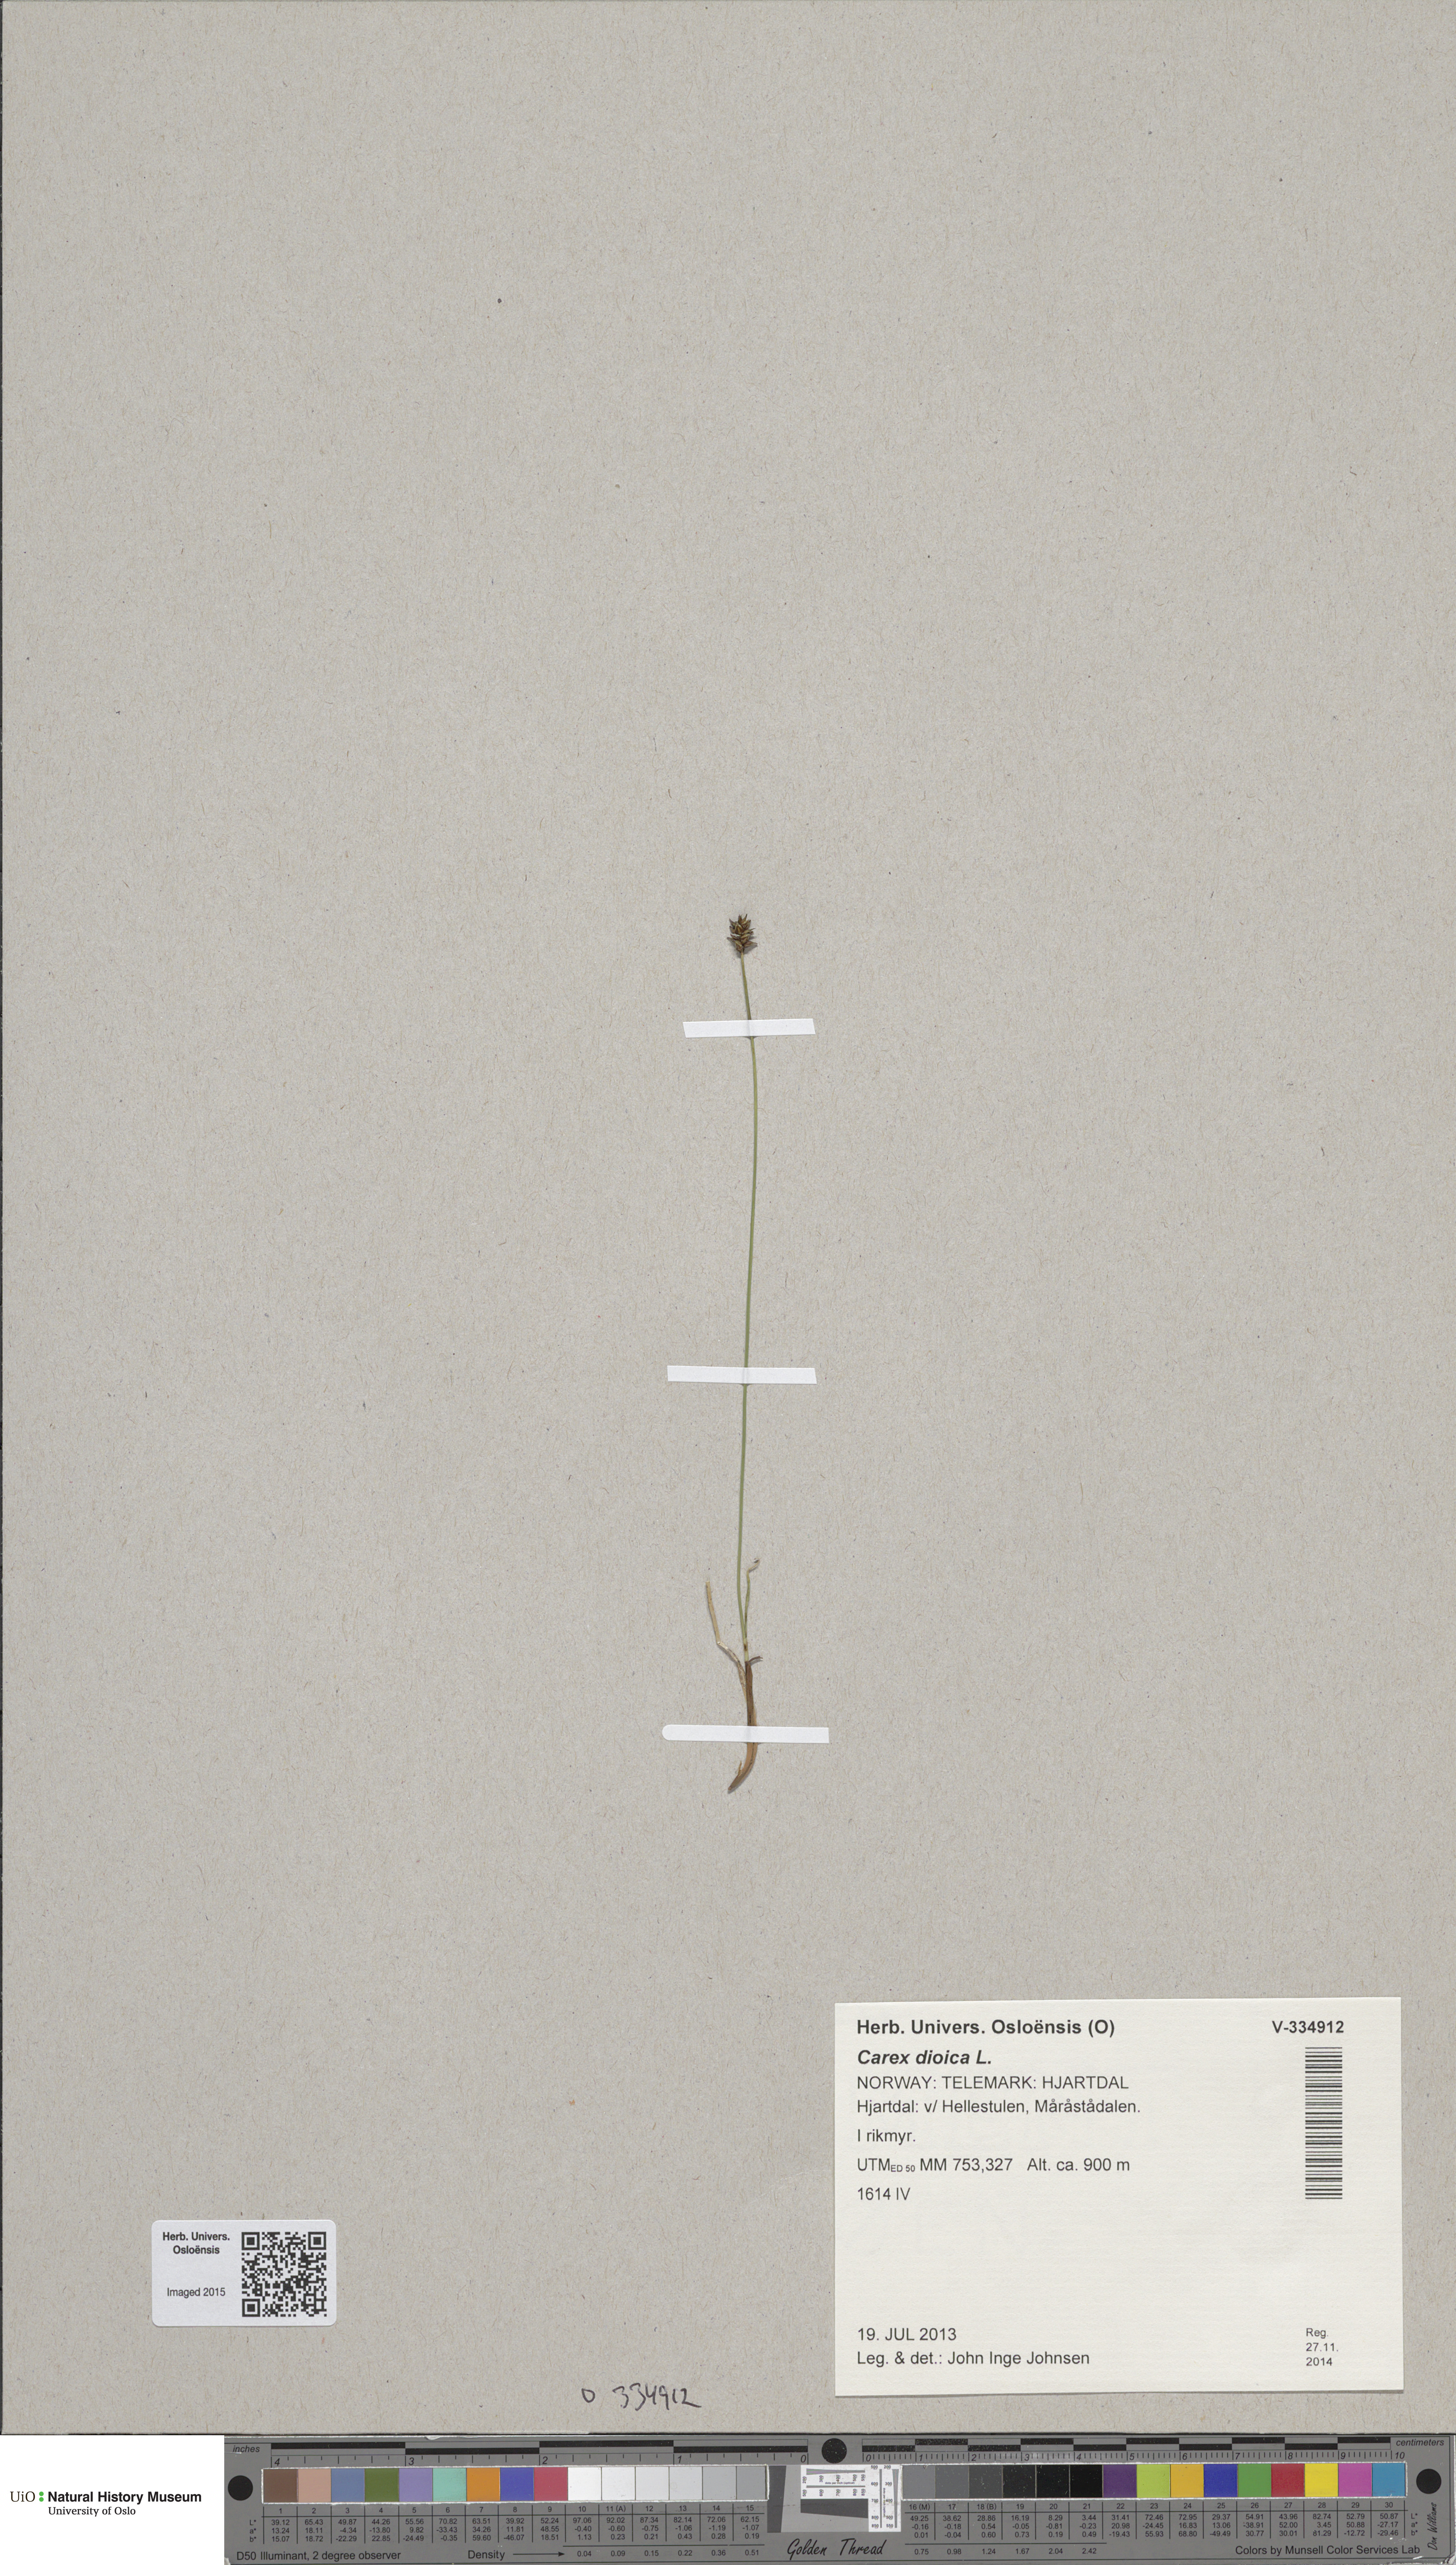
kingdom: Plantae
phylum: Tracheophyta
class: Liliopsida
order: Poales
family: Cyperaceae
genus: Carex
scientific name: Carex dioica
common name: Dioecious sedge
